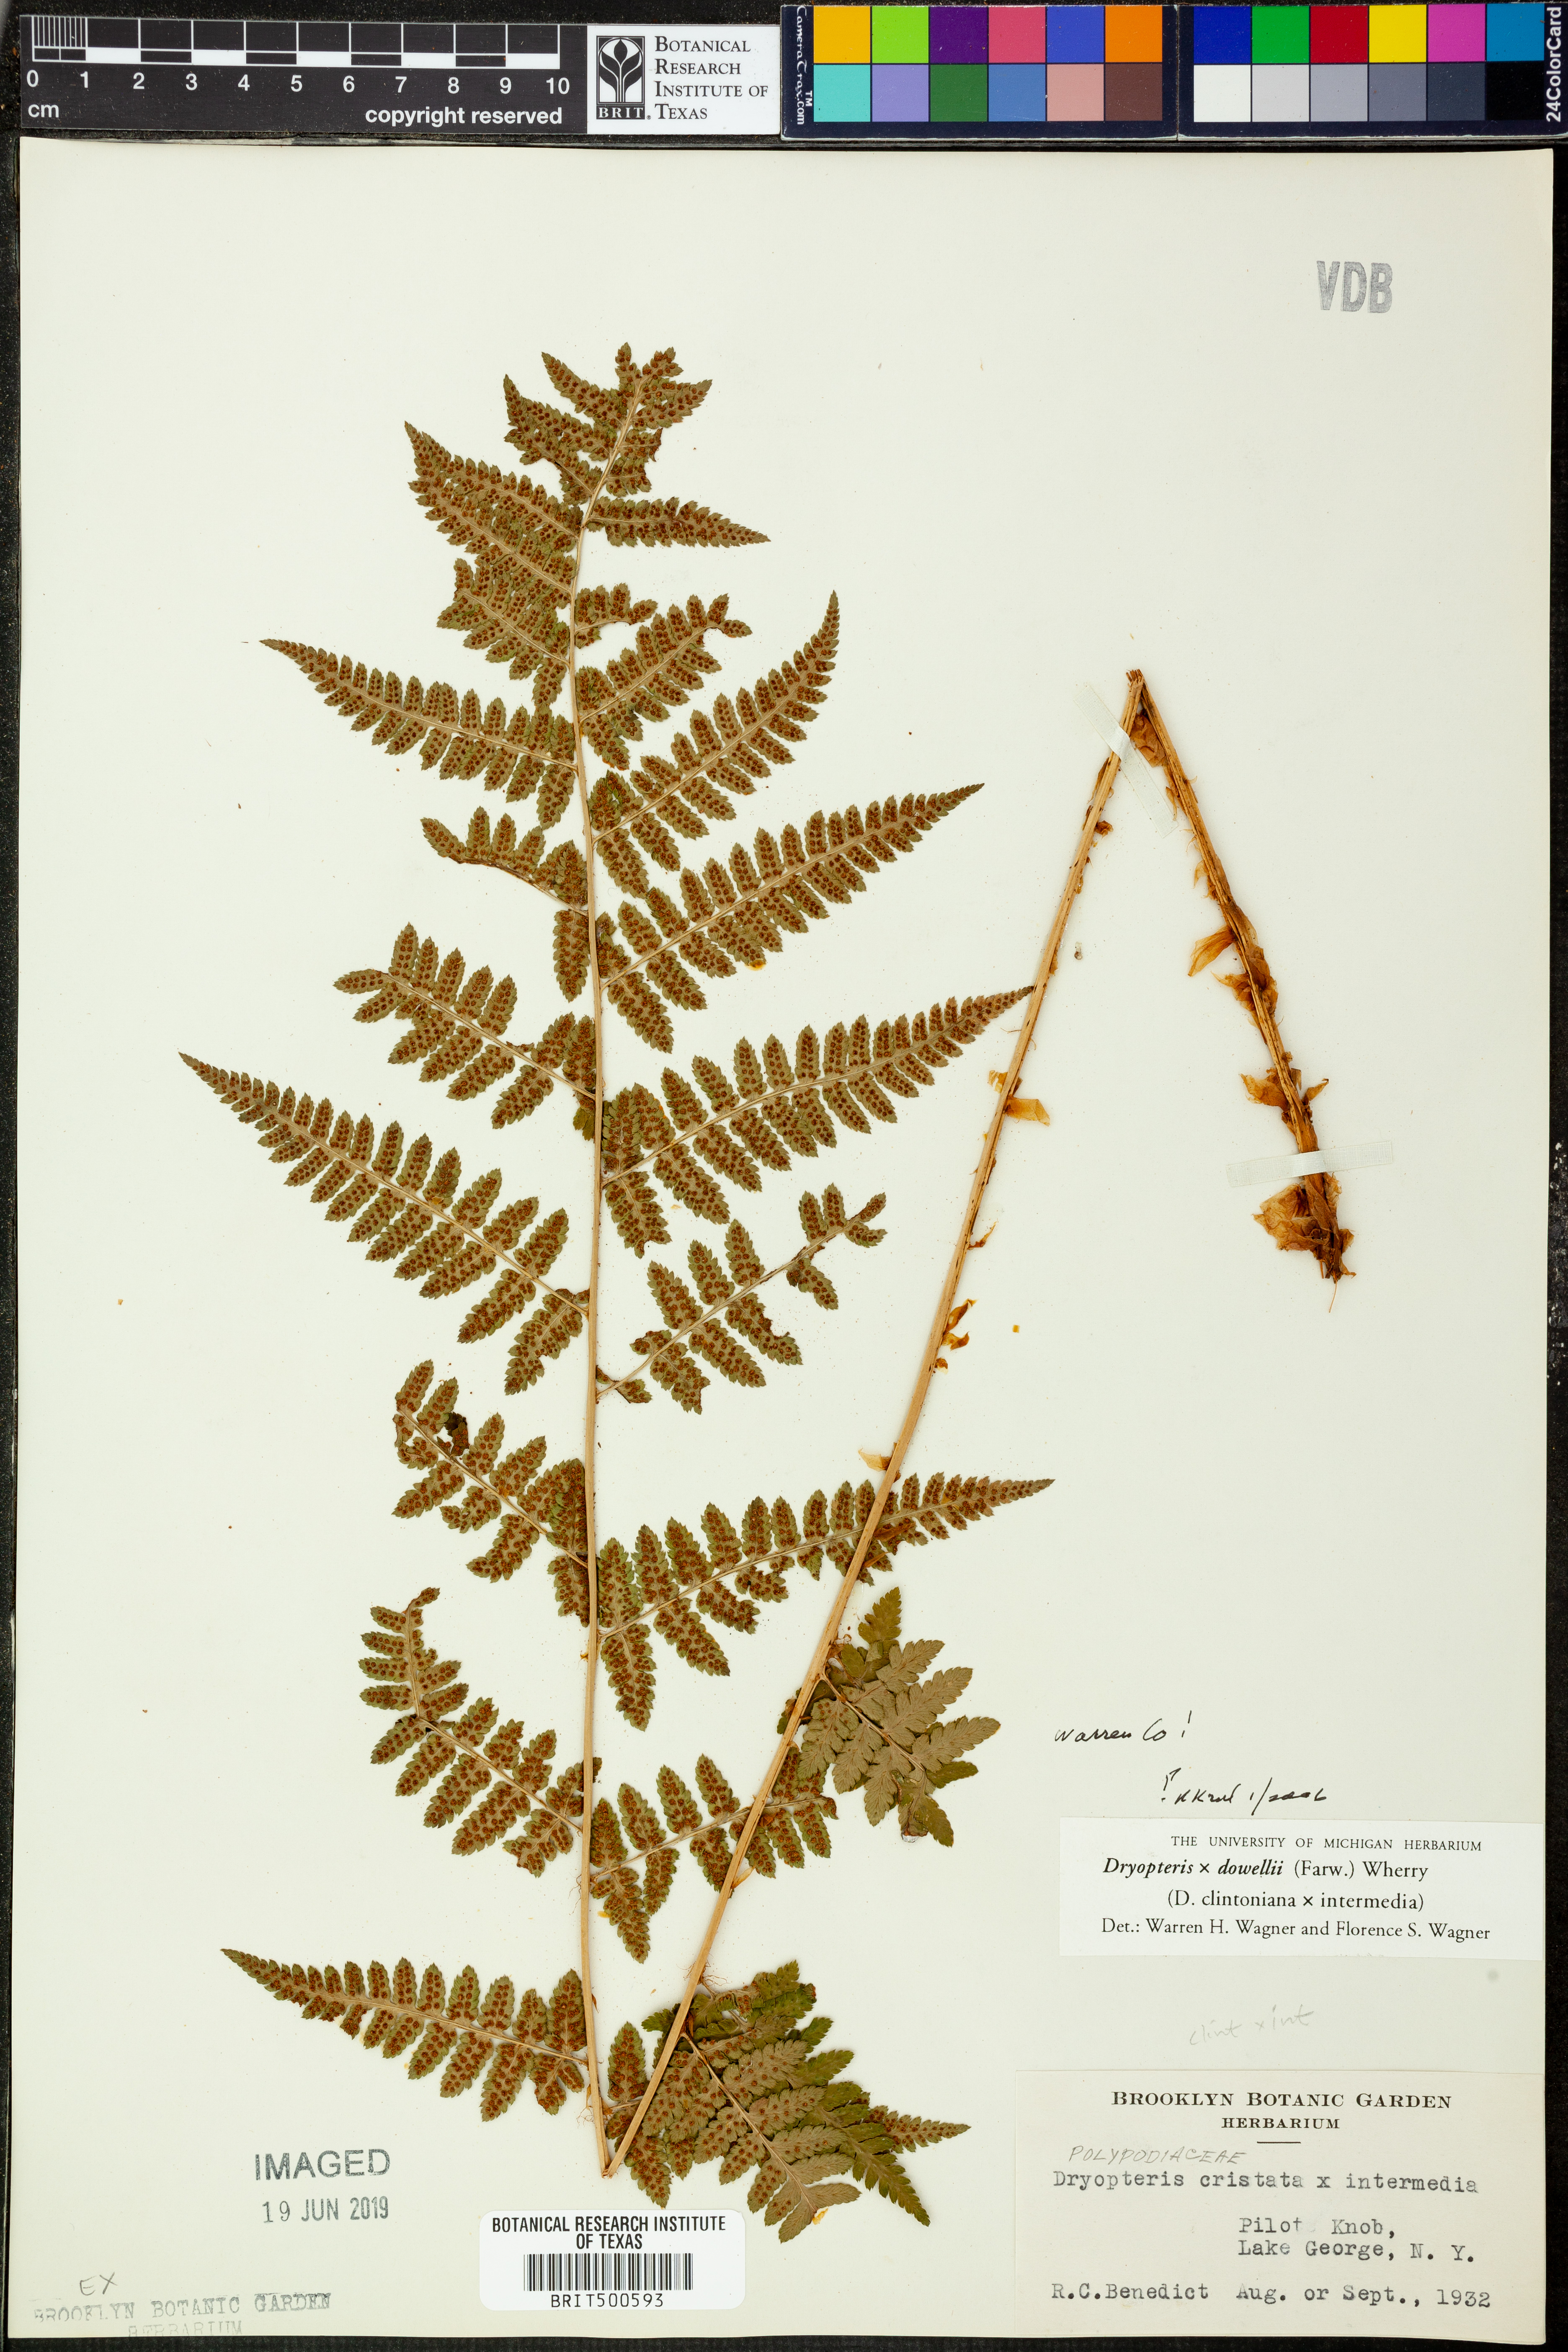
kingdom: Plantae
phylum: Tracheophyta
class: Polypodiopsida
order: Polypodiales
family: Dryopteridaceae
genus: Dryopteris
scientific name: Dryopteris
